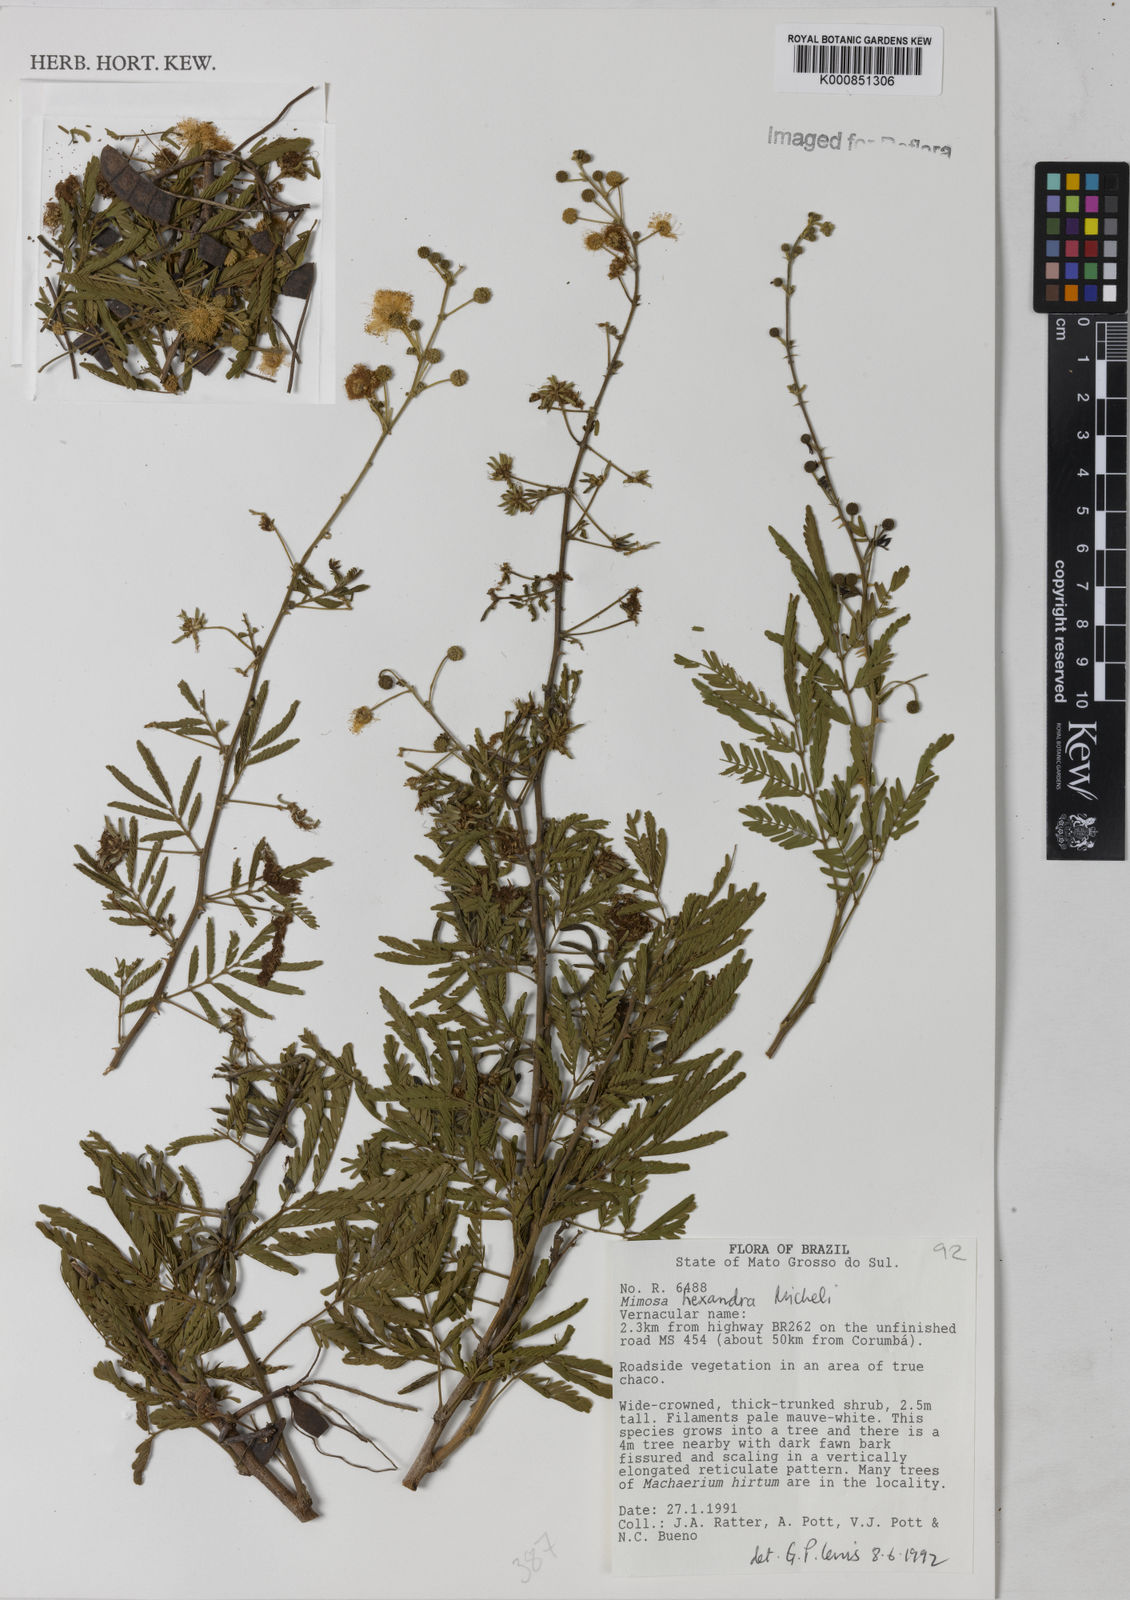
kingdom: Plantae
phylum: Tracheophyta
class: Magnoliopsida
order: Fabales
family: Fabaceae
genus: Mimosa
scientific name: Mimosa hexandra
